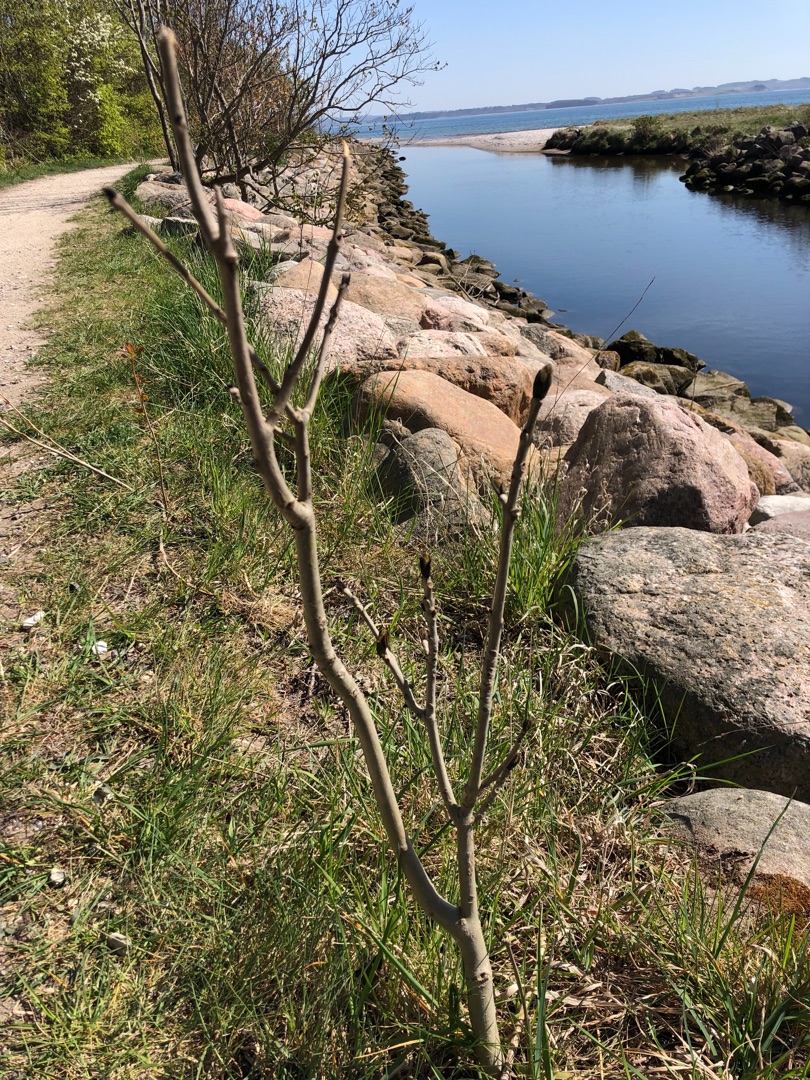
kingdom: Plantae
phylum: Tracheophyta
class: Magnoliopsida
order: Lamiales
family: Oleaceae
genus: Fraxinus
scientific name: Fraxinus excelsior
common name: Ask
